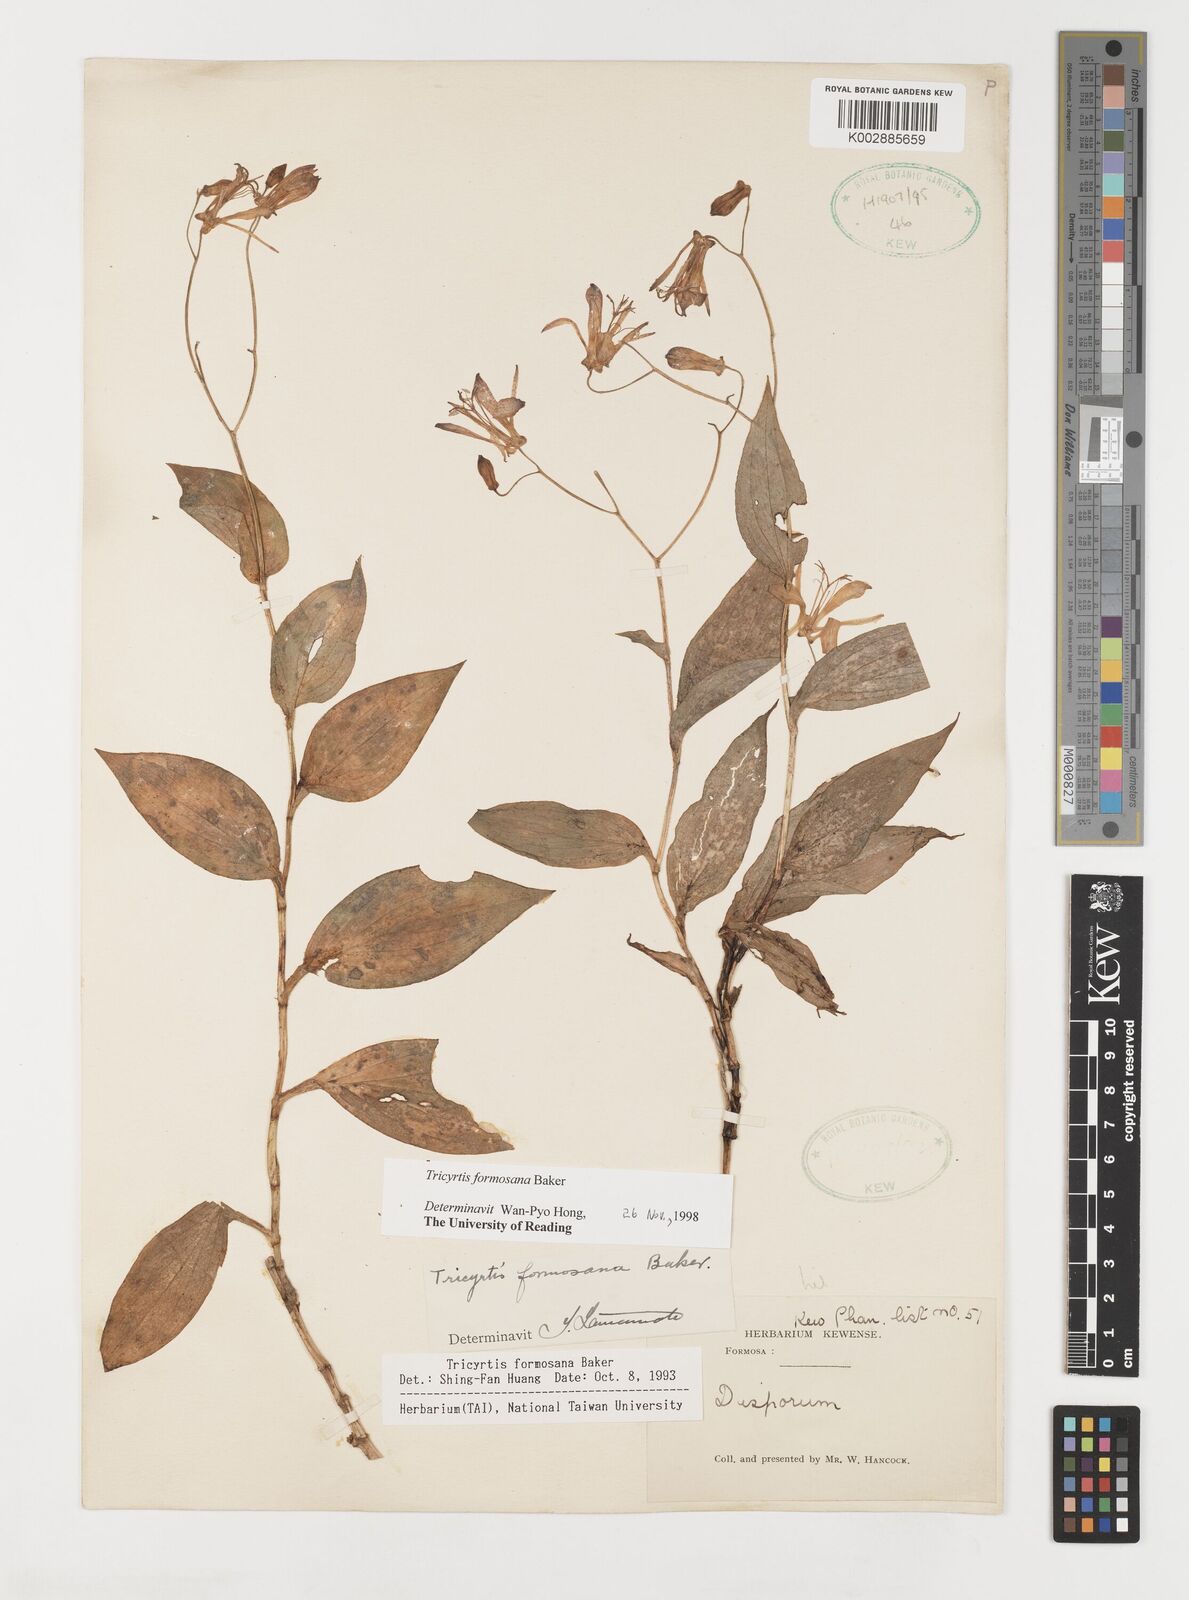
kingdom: Plantae
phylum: Tracheophyta
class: Liliopsida
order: Liliales
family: Liliaceae
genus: Tricyrtis
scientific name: Tricyrtis formosana
